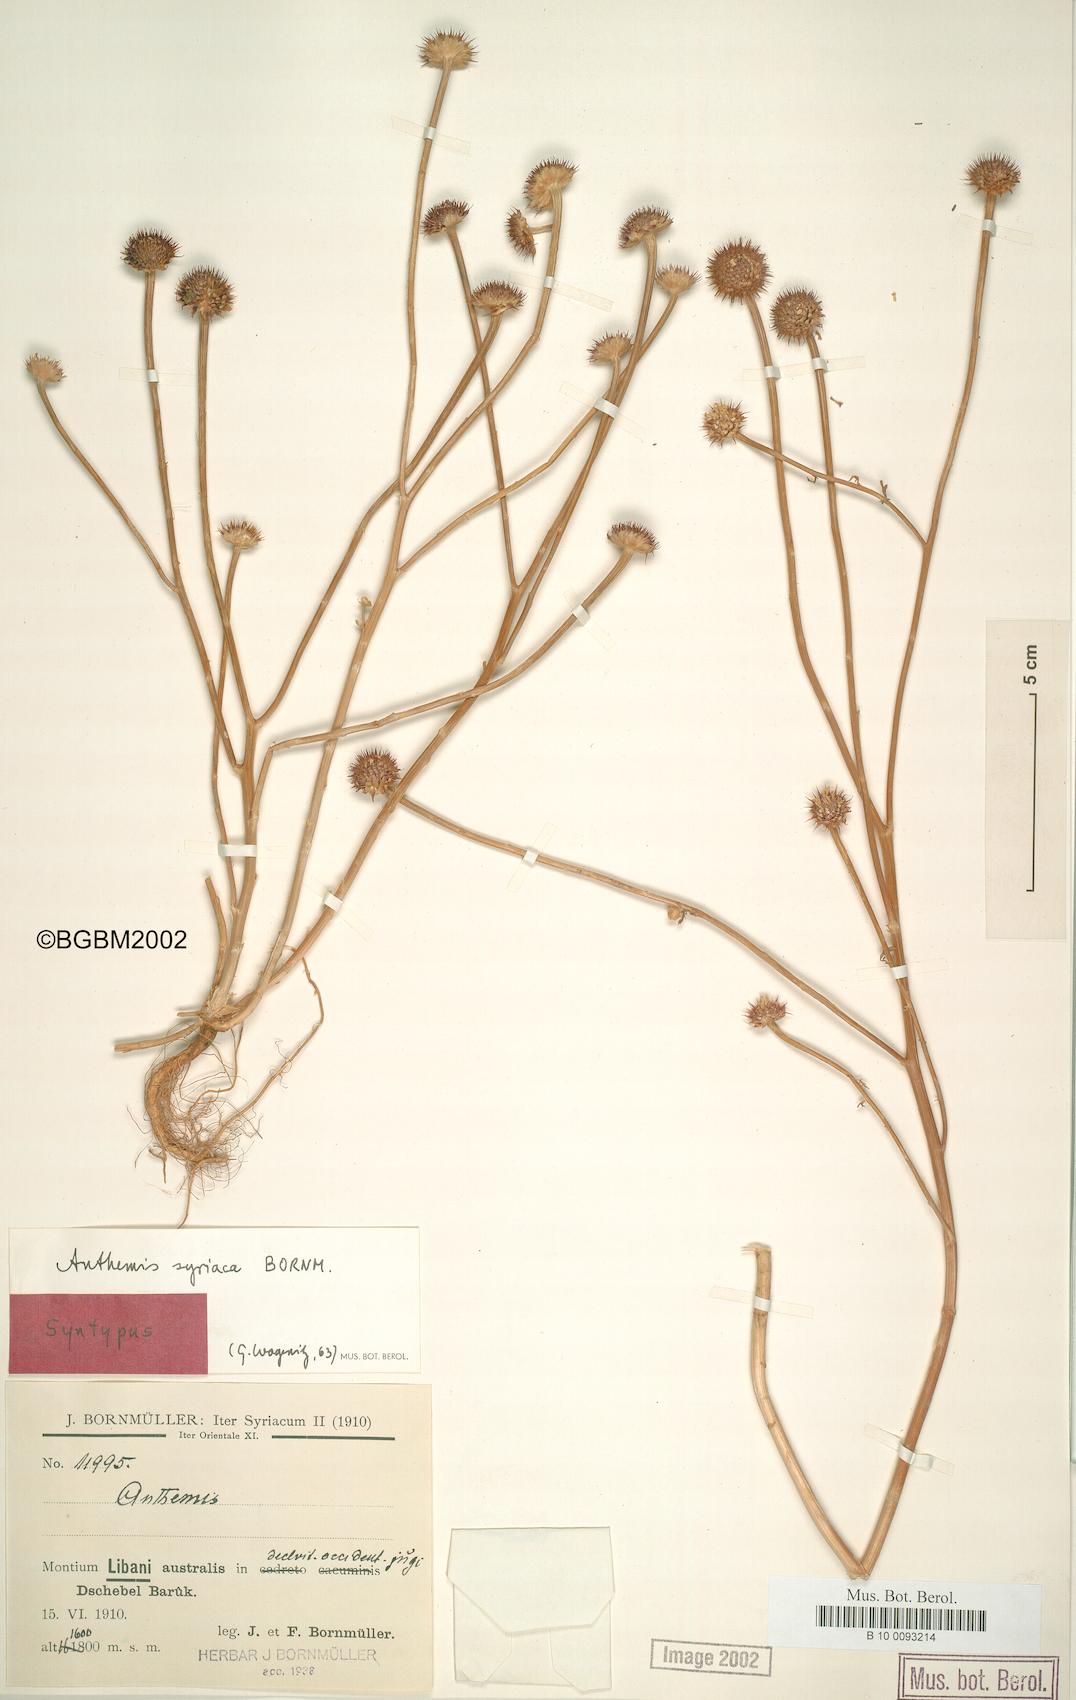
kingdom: Plantae
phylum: Tracheophyta
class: Magnoliopsida
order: Asterales
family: Asteraceae
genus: Cota
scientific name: Cota palaestina
